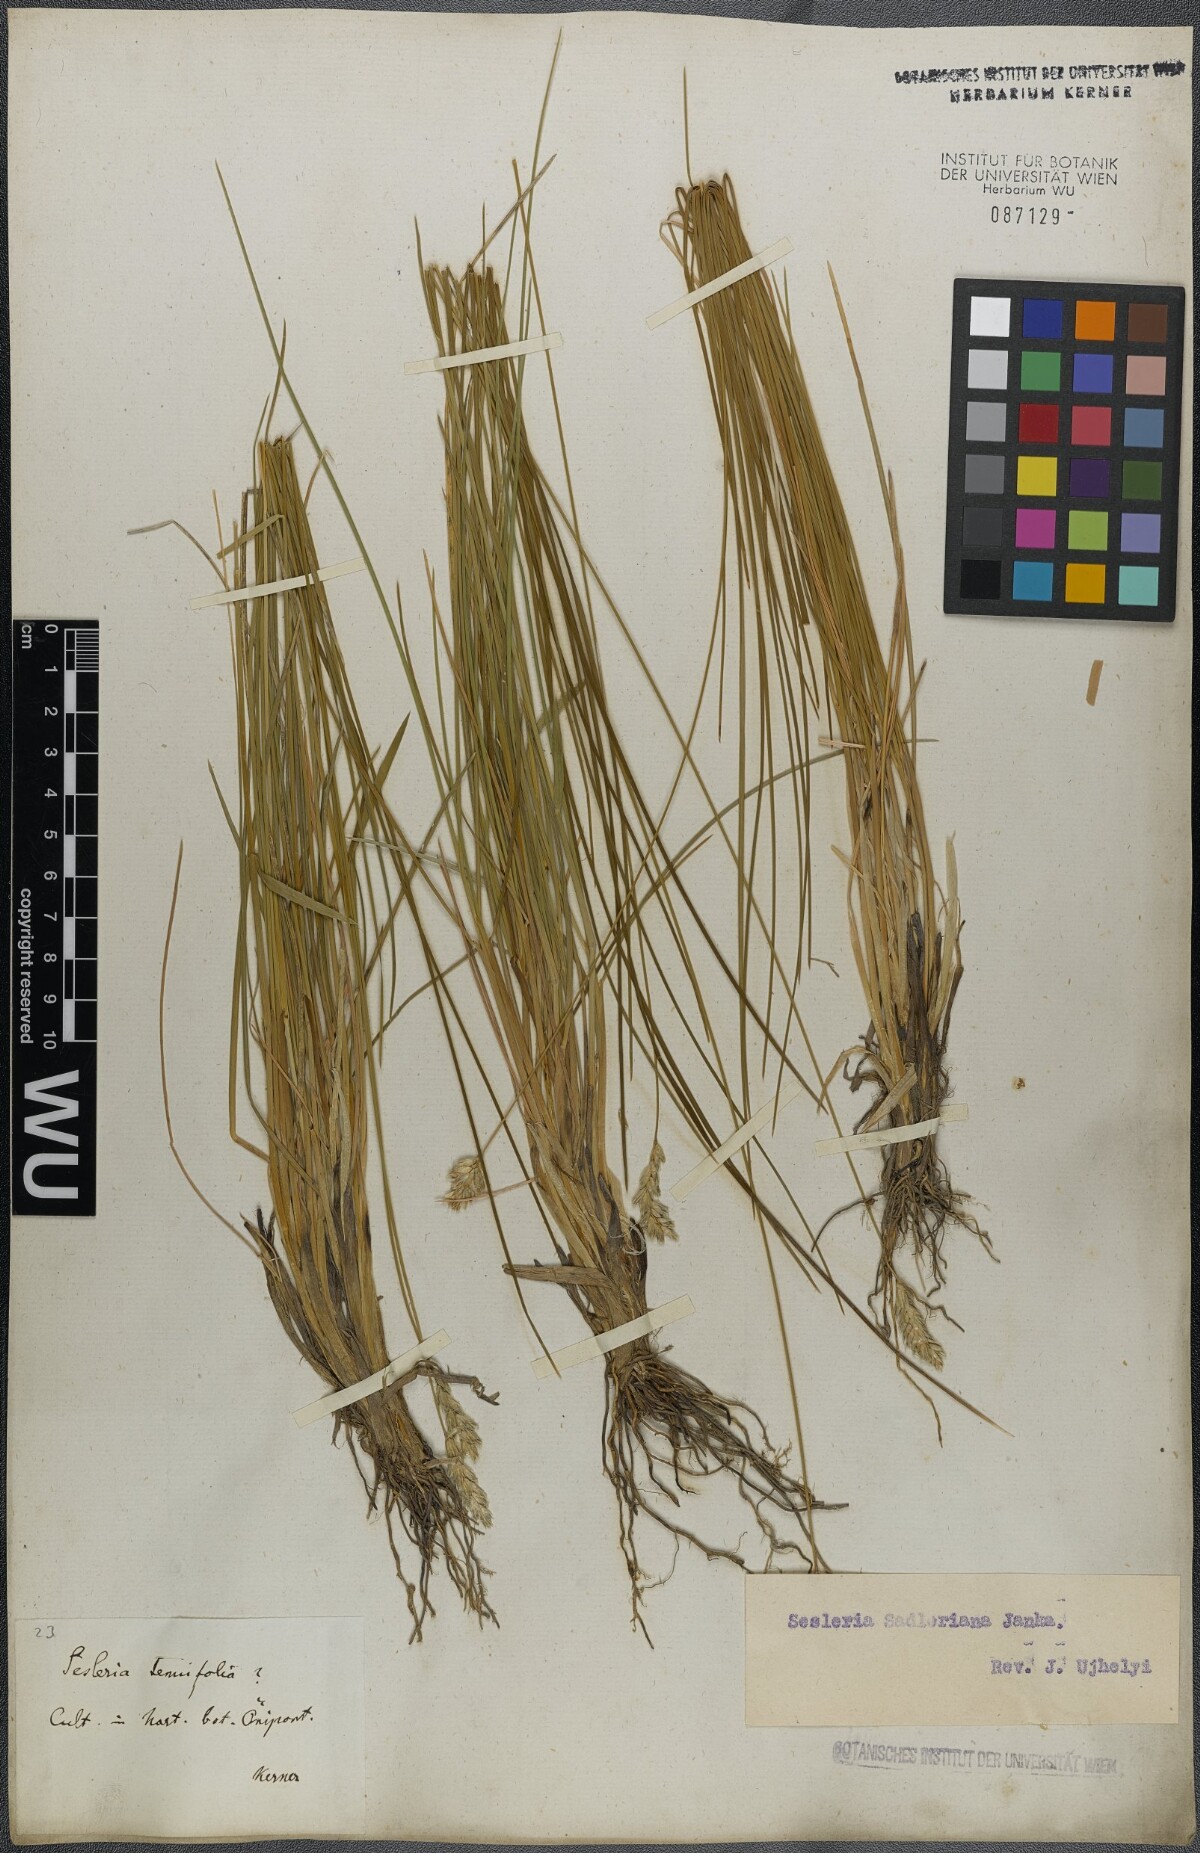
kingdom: Plantae
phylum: Tracheophyta
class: Liliopsida
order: Poales
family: Poaceae
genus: Sesleria
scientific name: Sesleria sadleriana
